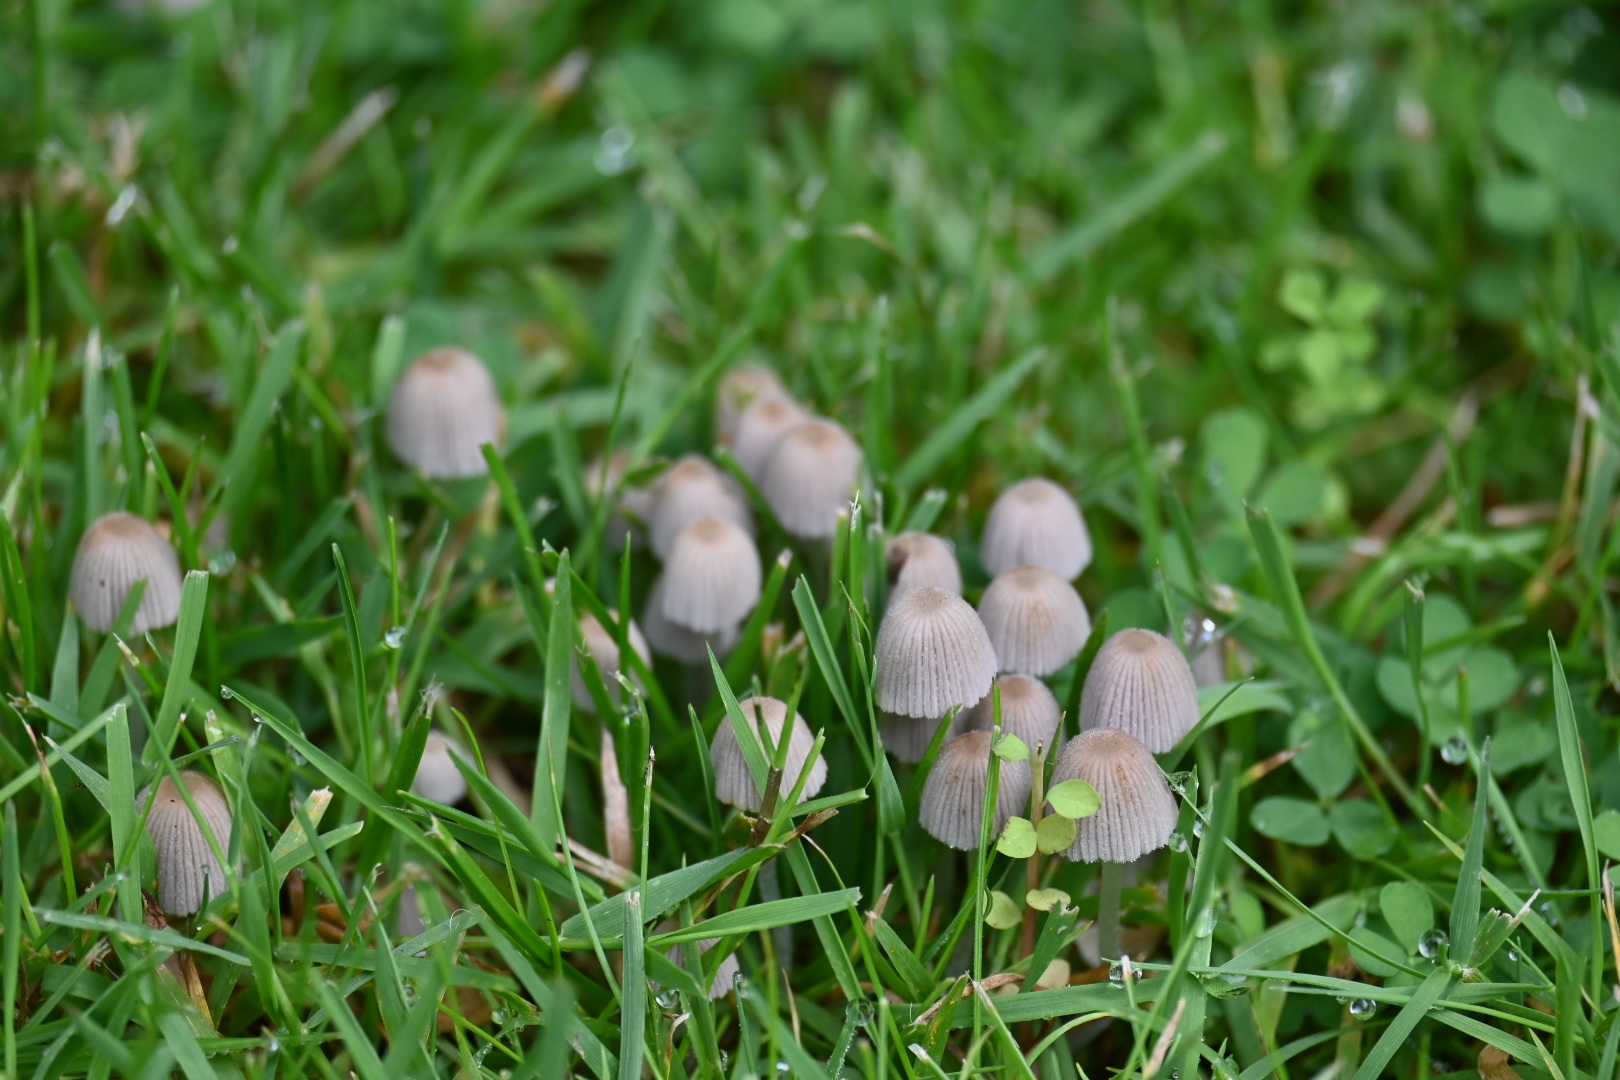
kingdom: Fungi
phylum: Basidiomycota
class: Agaricomycetes
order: Agaricales
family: Psathyrellaceae
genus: Coprinellus
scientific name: Coprinellus disseminatus
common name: bredsået blækhat
